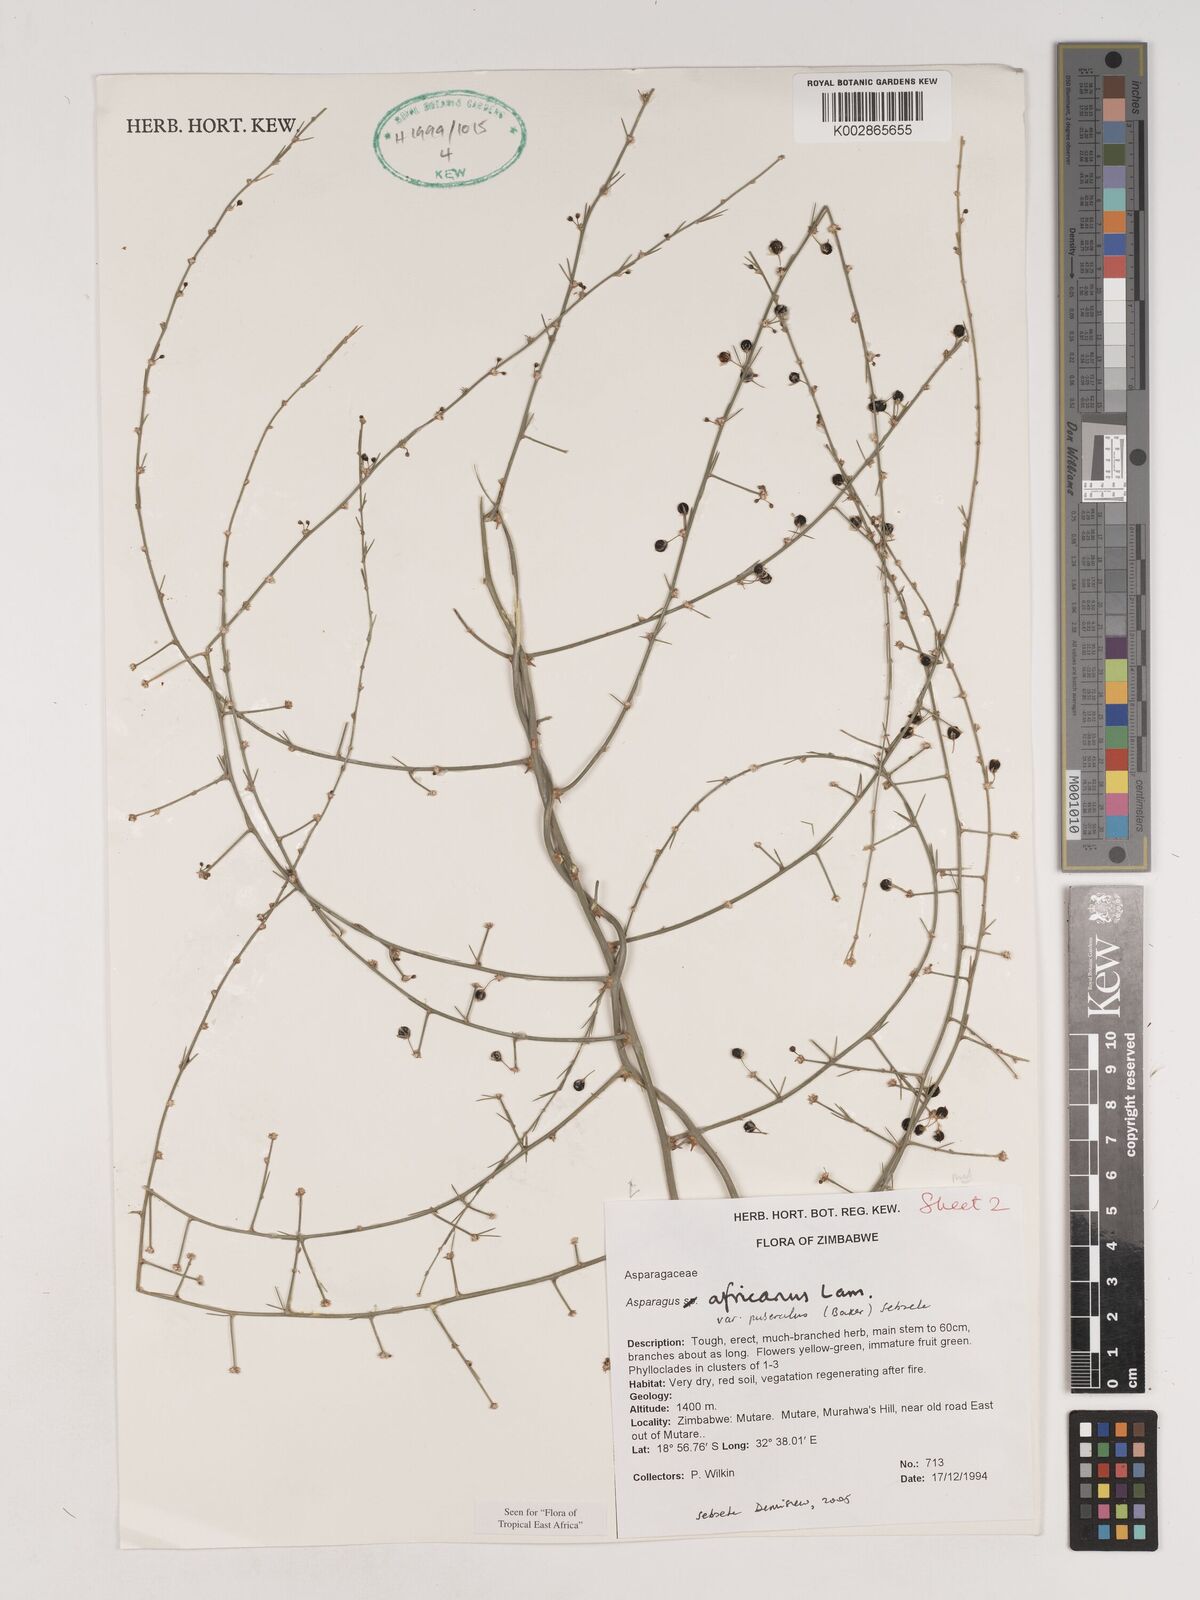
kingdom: Plantae
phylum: Tracheophyta
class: Liliopsida
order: Asparagales
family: Asparagaceae
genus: Asparagus
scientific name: Asparagus africanus
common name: Asparagus-fern
